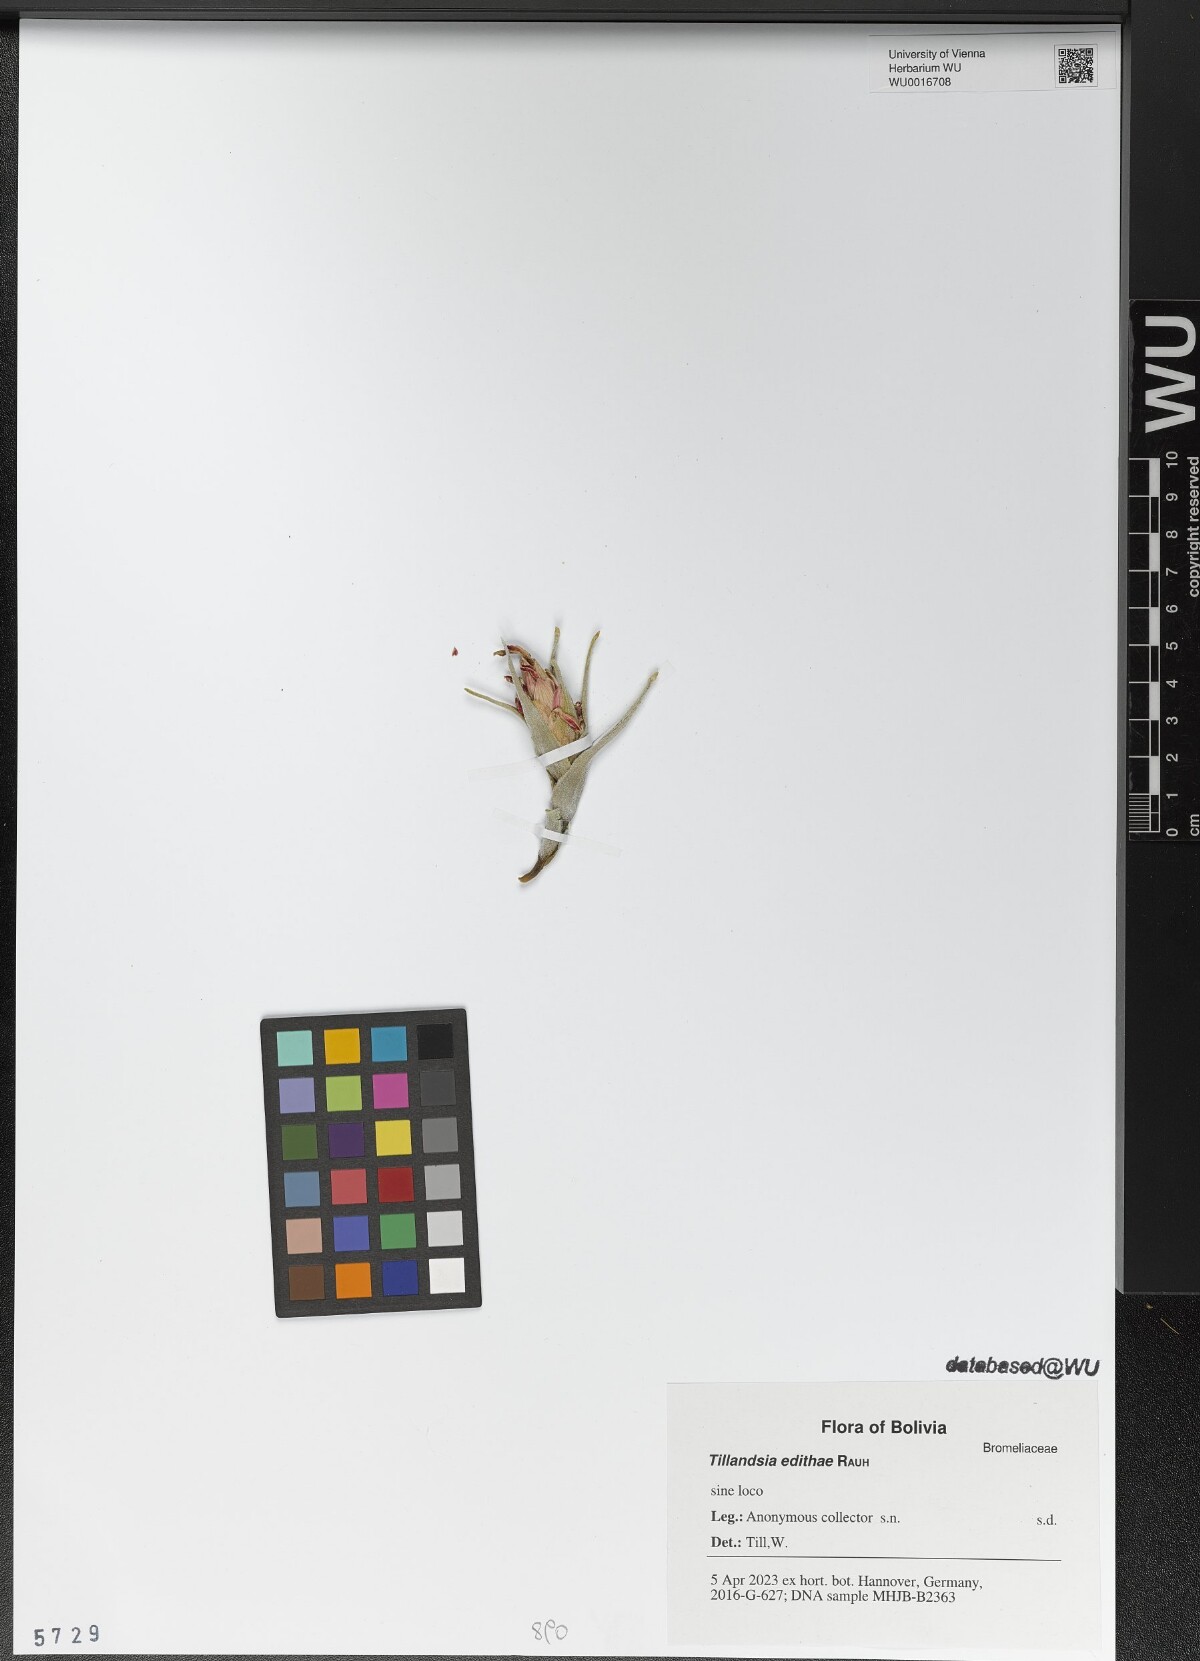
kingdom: Plantae
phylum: Tracheophyta
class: Liliopsida
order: Poales
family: Bromeliaceae
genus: Tillandsia
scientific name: Tillandsia edithae
